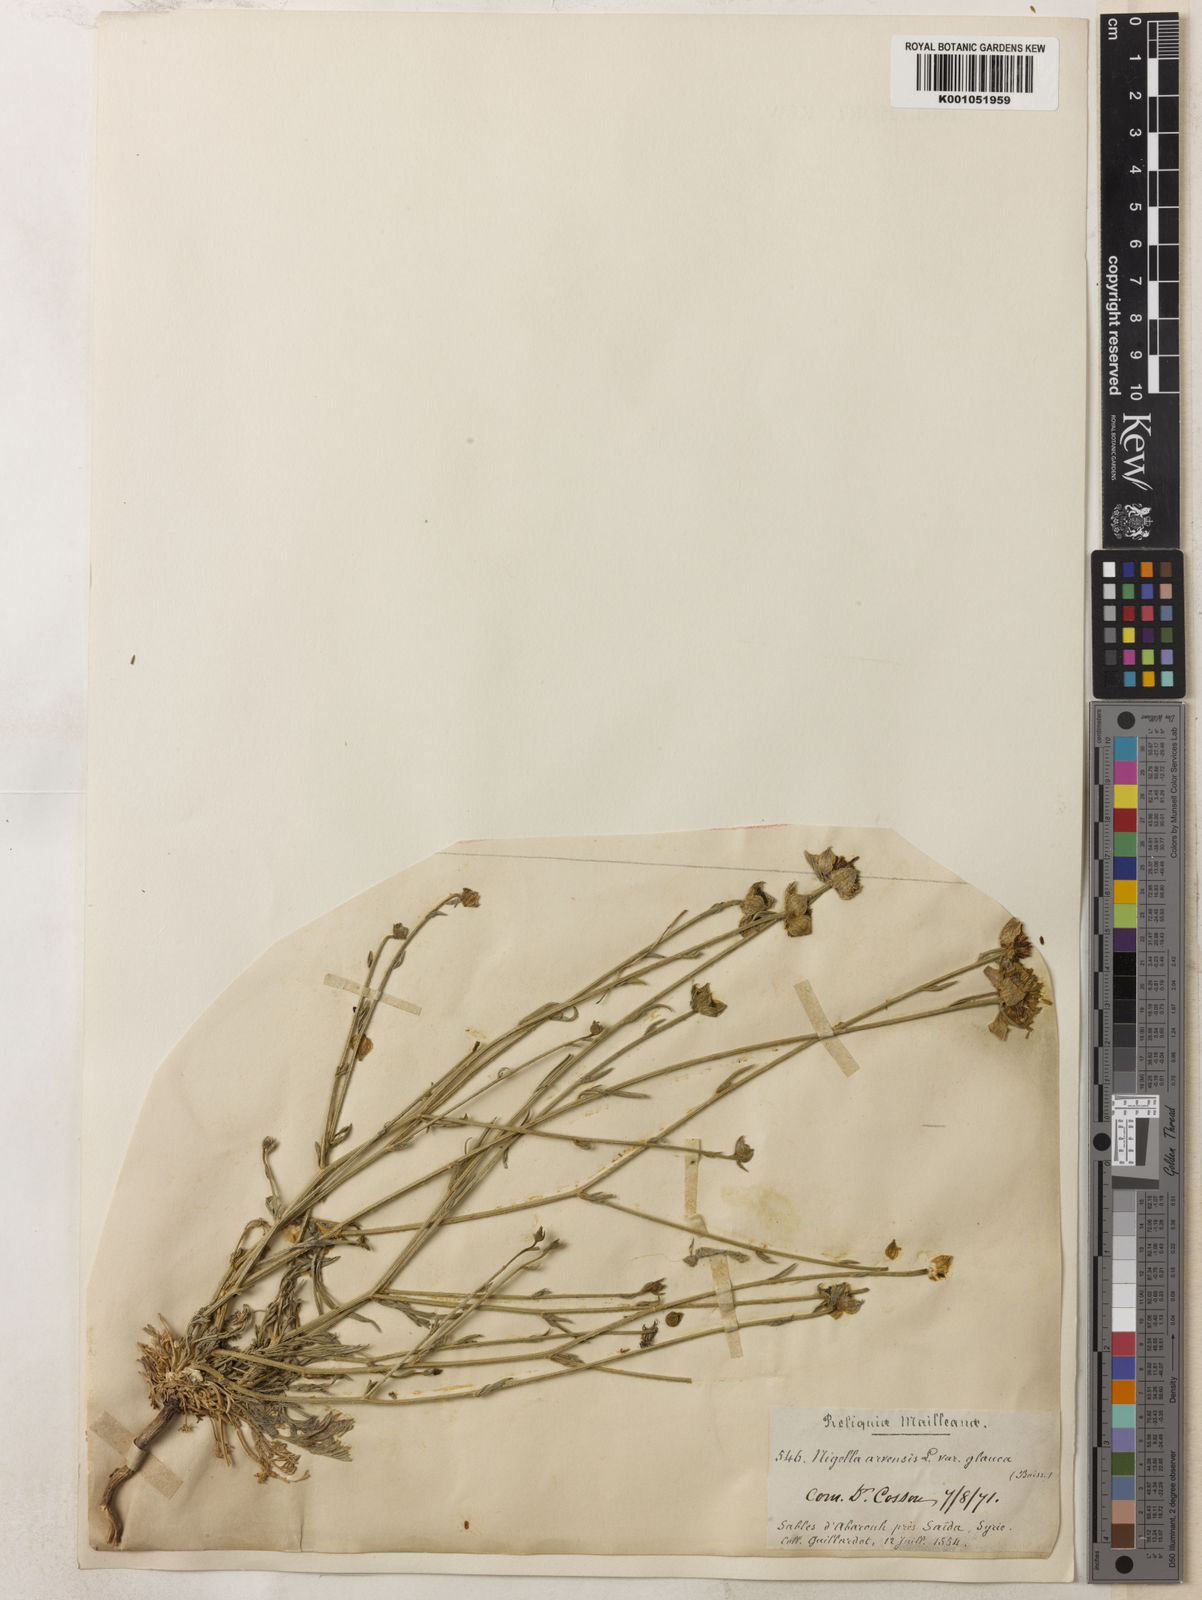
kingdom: Plantae
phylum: Tracheophyta
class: Magnoliopsida
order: Ranunculales
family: Ranunculaceae
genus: Nigella
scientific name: Nigella arvensis
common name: Wild fennel-flower
